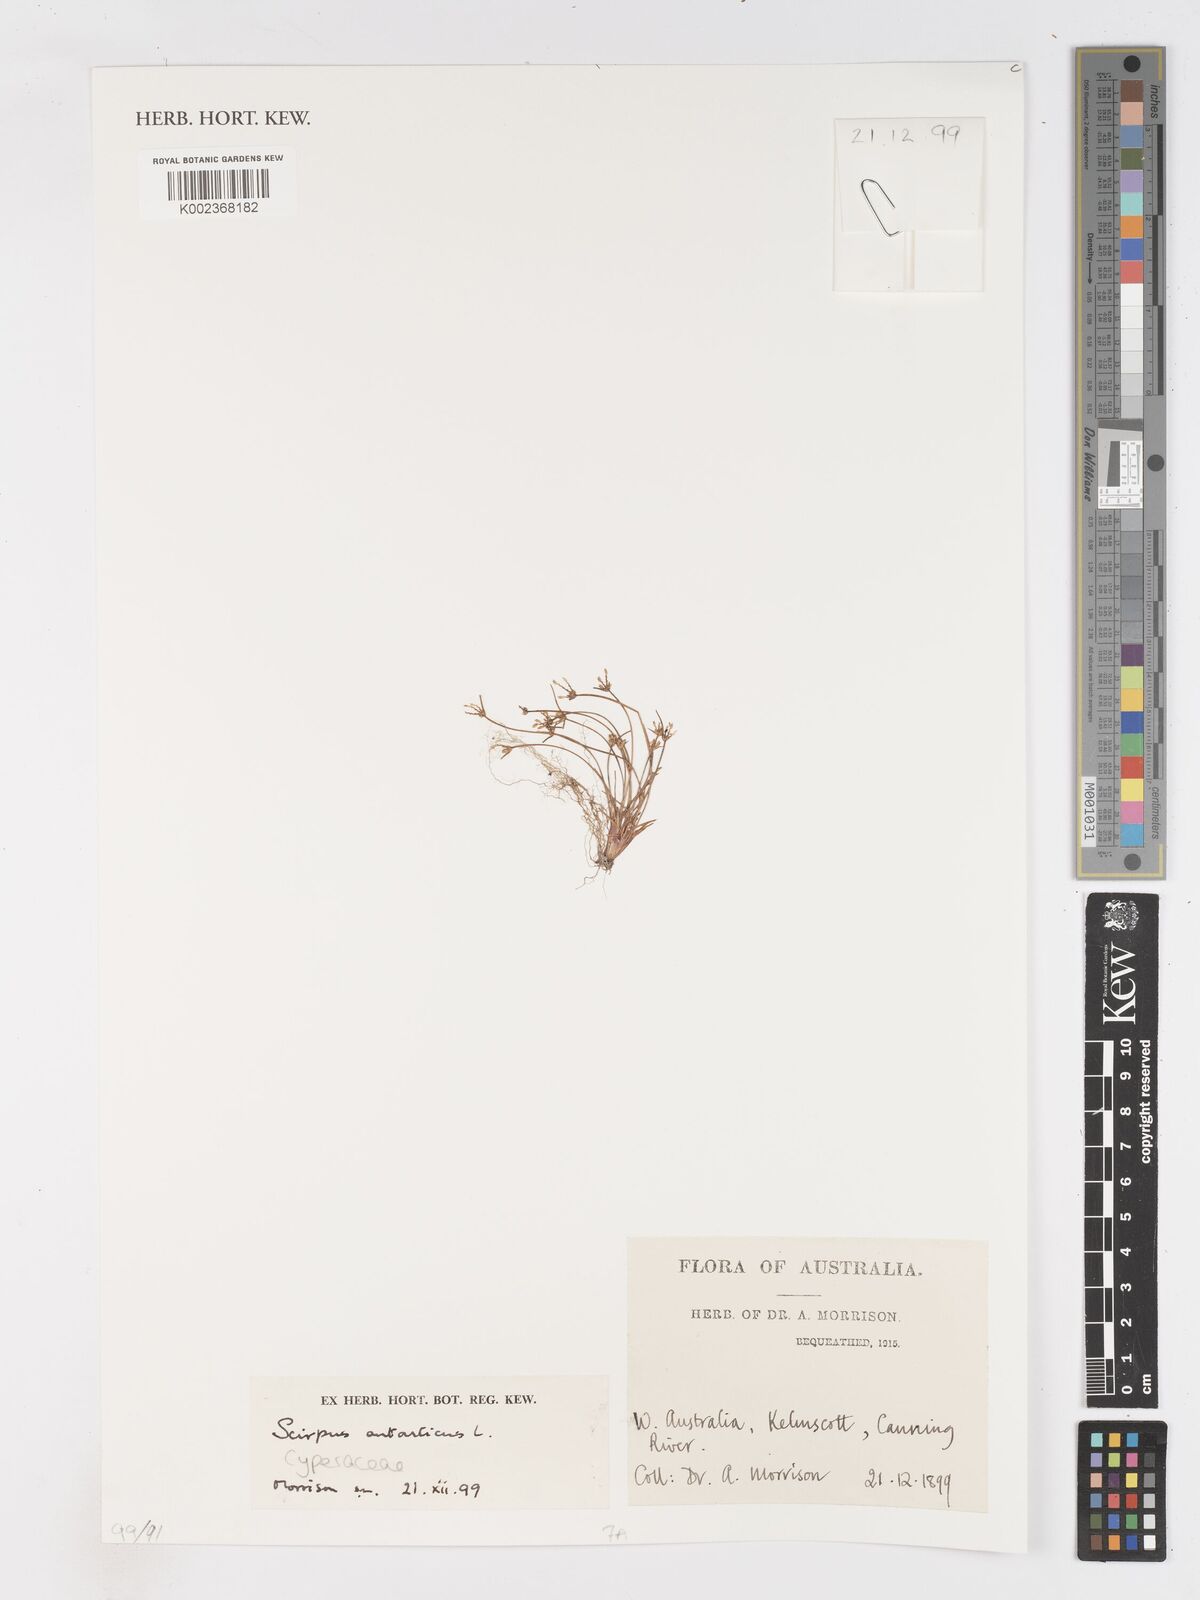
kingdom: Plantae
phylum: Tracheophyta
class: Liliopsida
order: Poales
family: Cyperaceae
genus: Isolepis
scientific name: Isolepis antarctica
